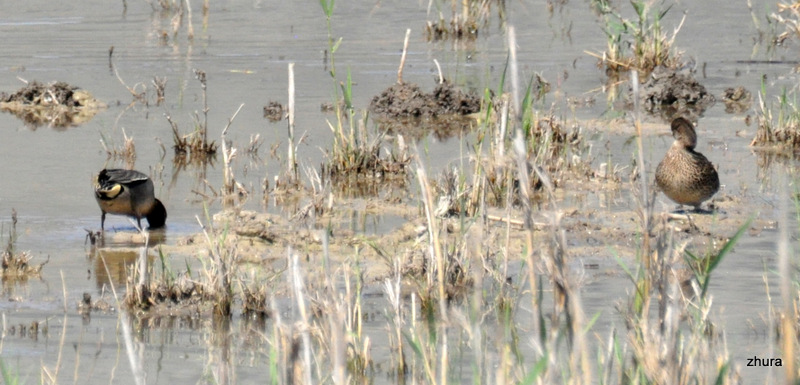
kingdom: Animalia
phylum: Chordata
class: Aves
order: Anseriformes
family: Anatidae
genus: Anas
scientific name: Anas crecca
